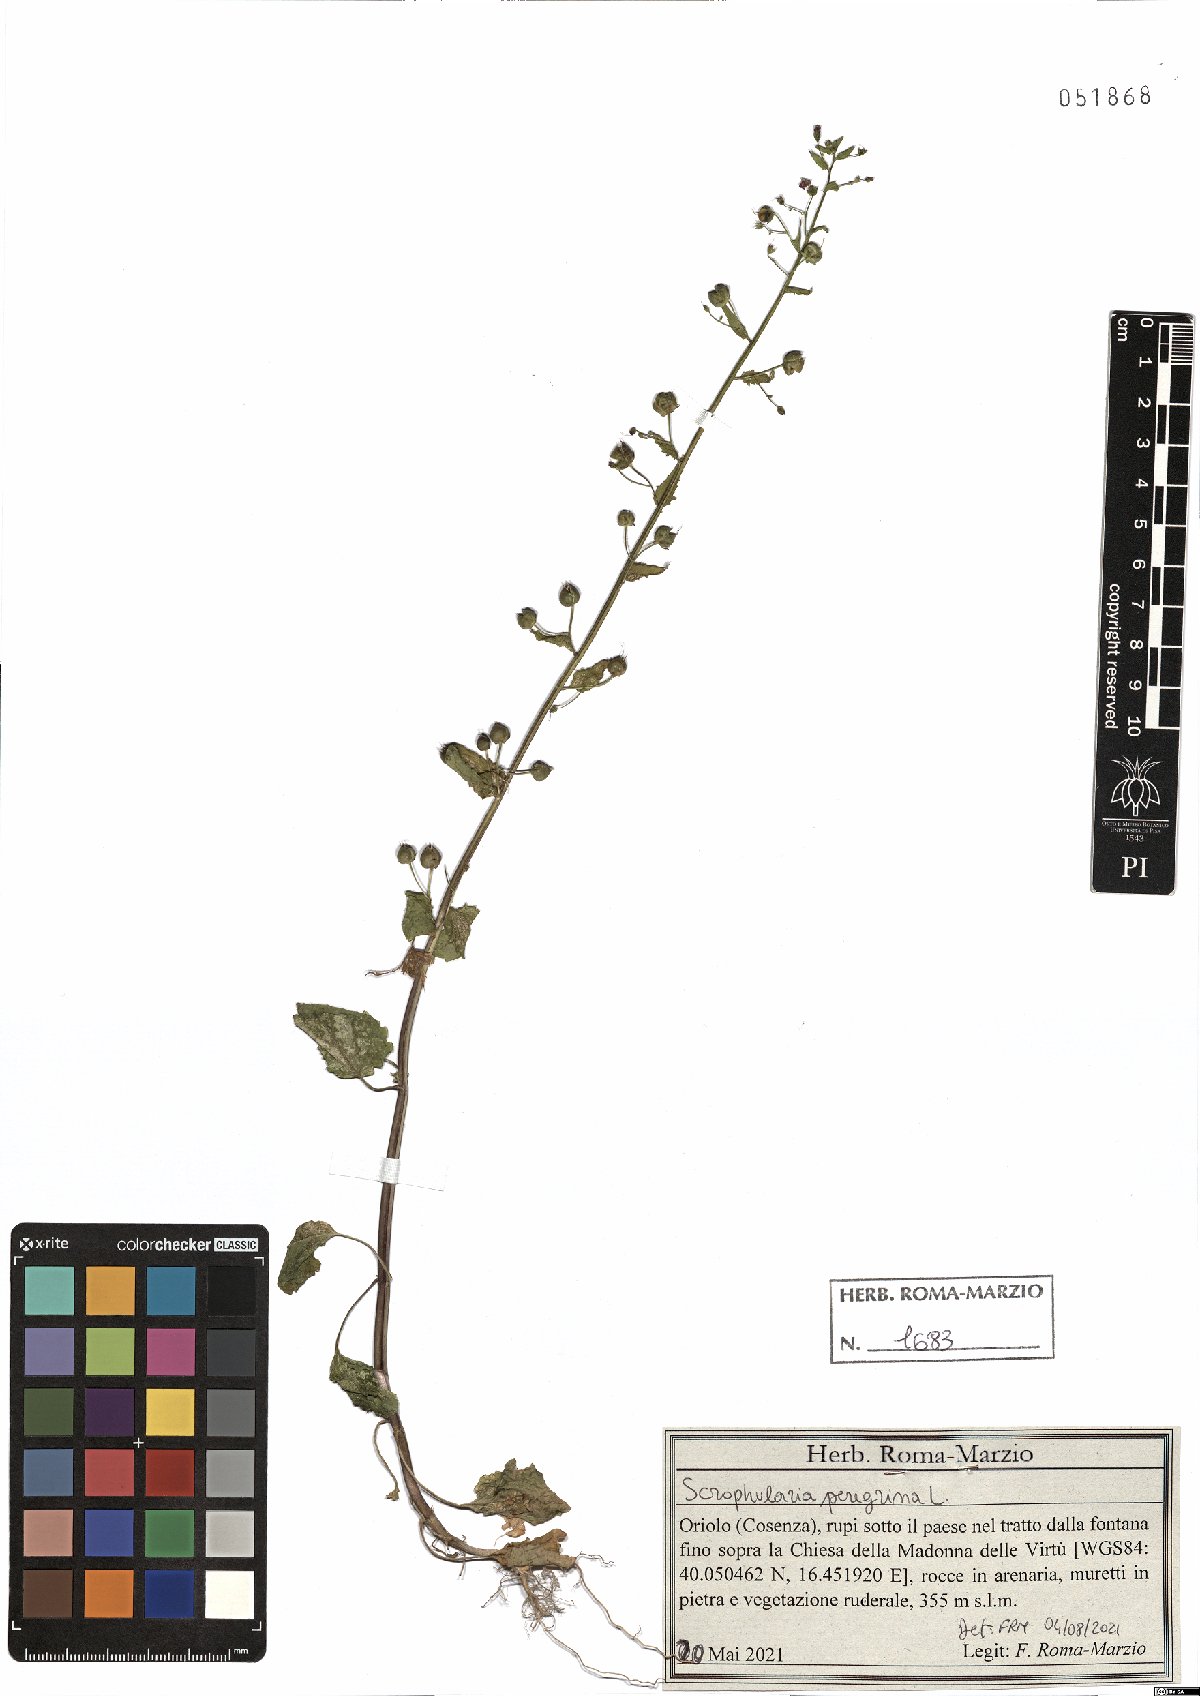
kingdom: Plantae
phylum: Tracheophyta
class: Magnoliopsida
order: Lamiales
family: Scrophulariaceae
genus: Scrophularia
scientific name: Scrophularia peregrina
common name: Mediterranean figwort
